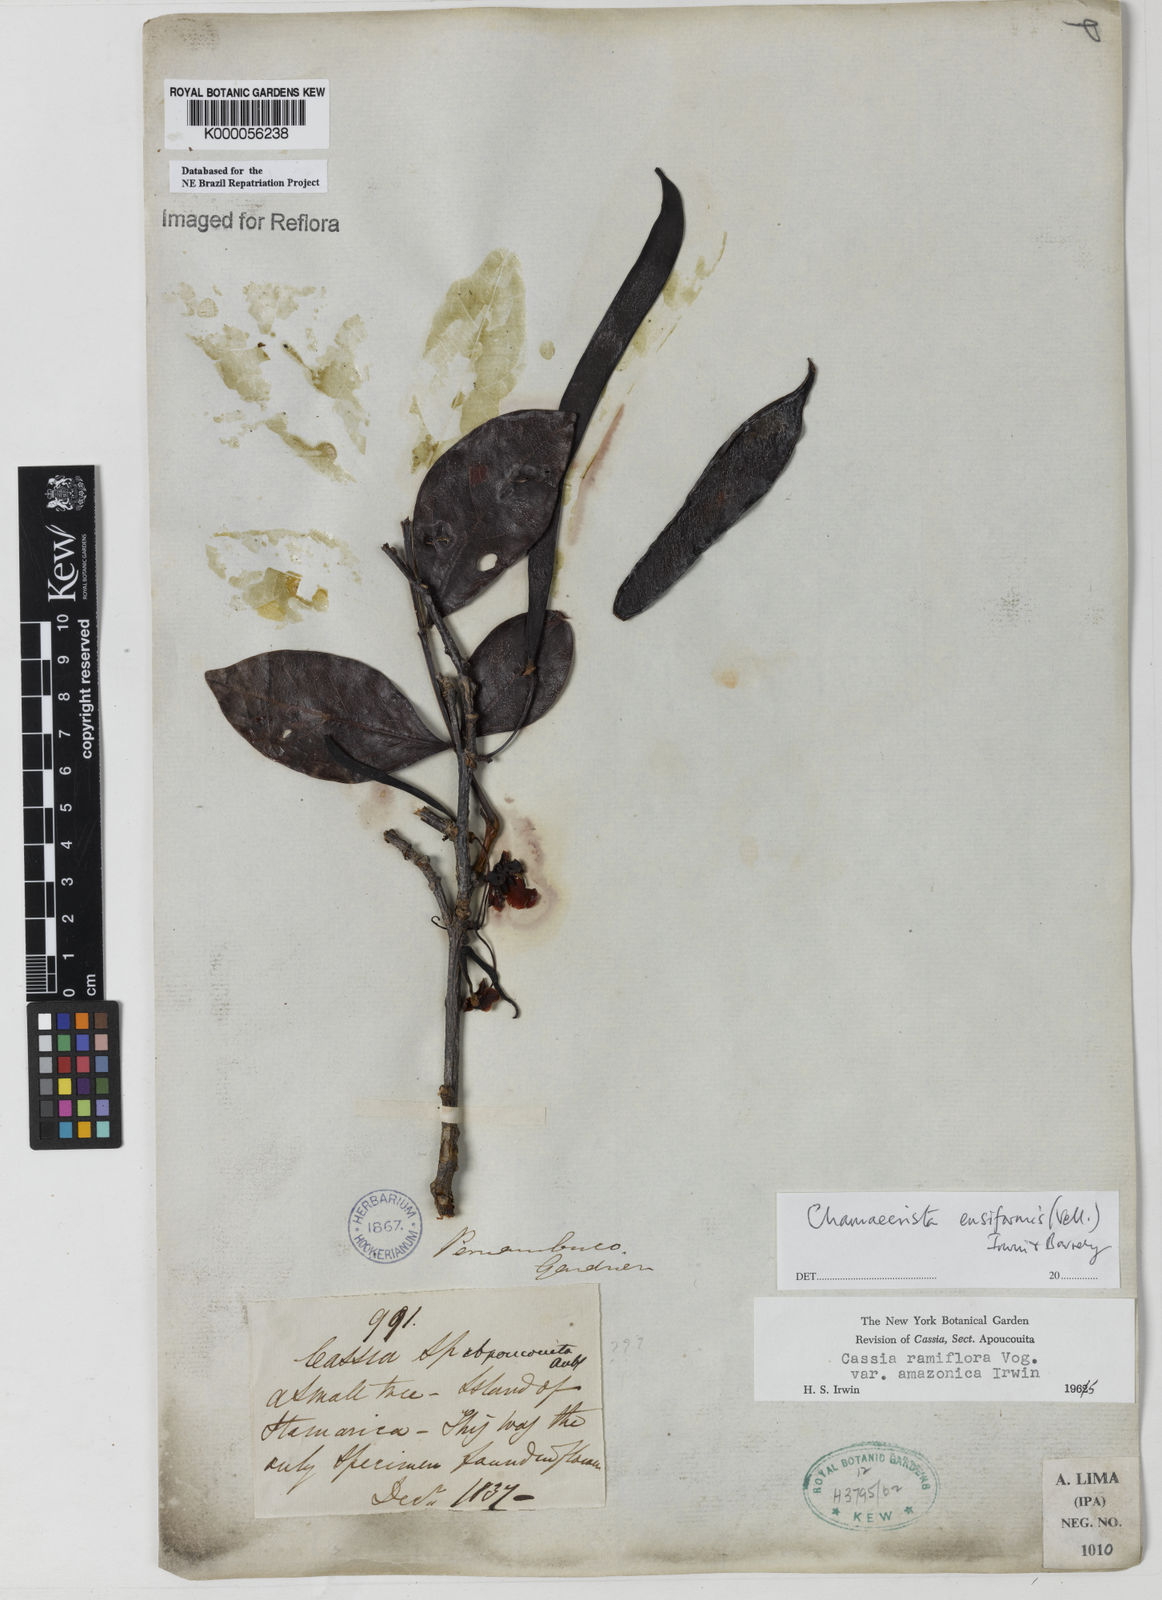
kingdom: Plantae
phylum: Tracheophyta
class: Magnoliopsida
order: Fabales
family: Fabaceae
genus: Chamaecrista
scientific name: Chamaecrista ensiformis
